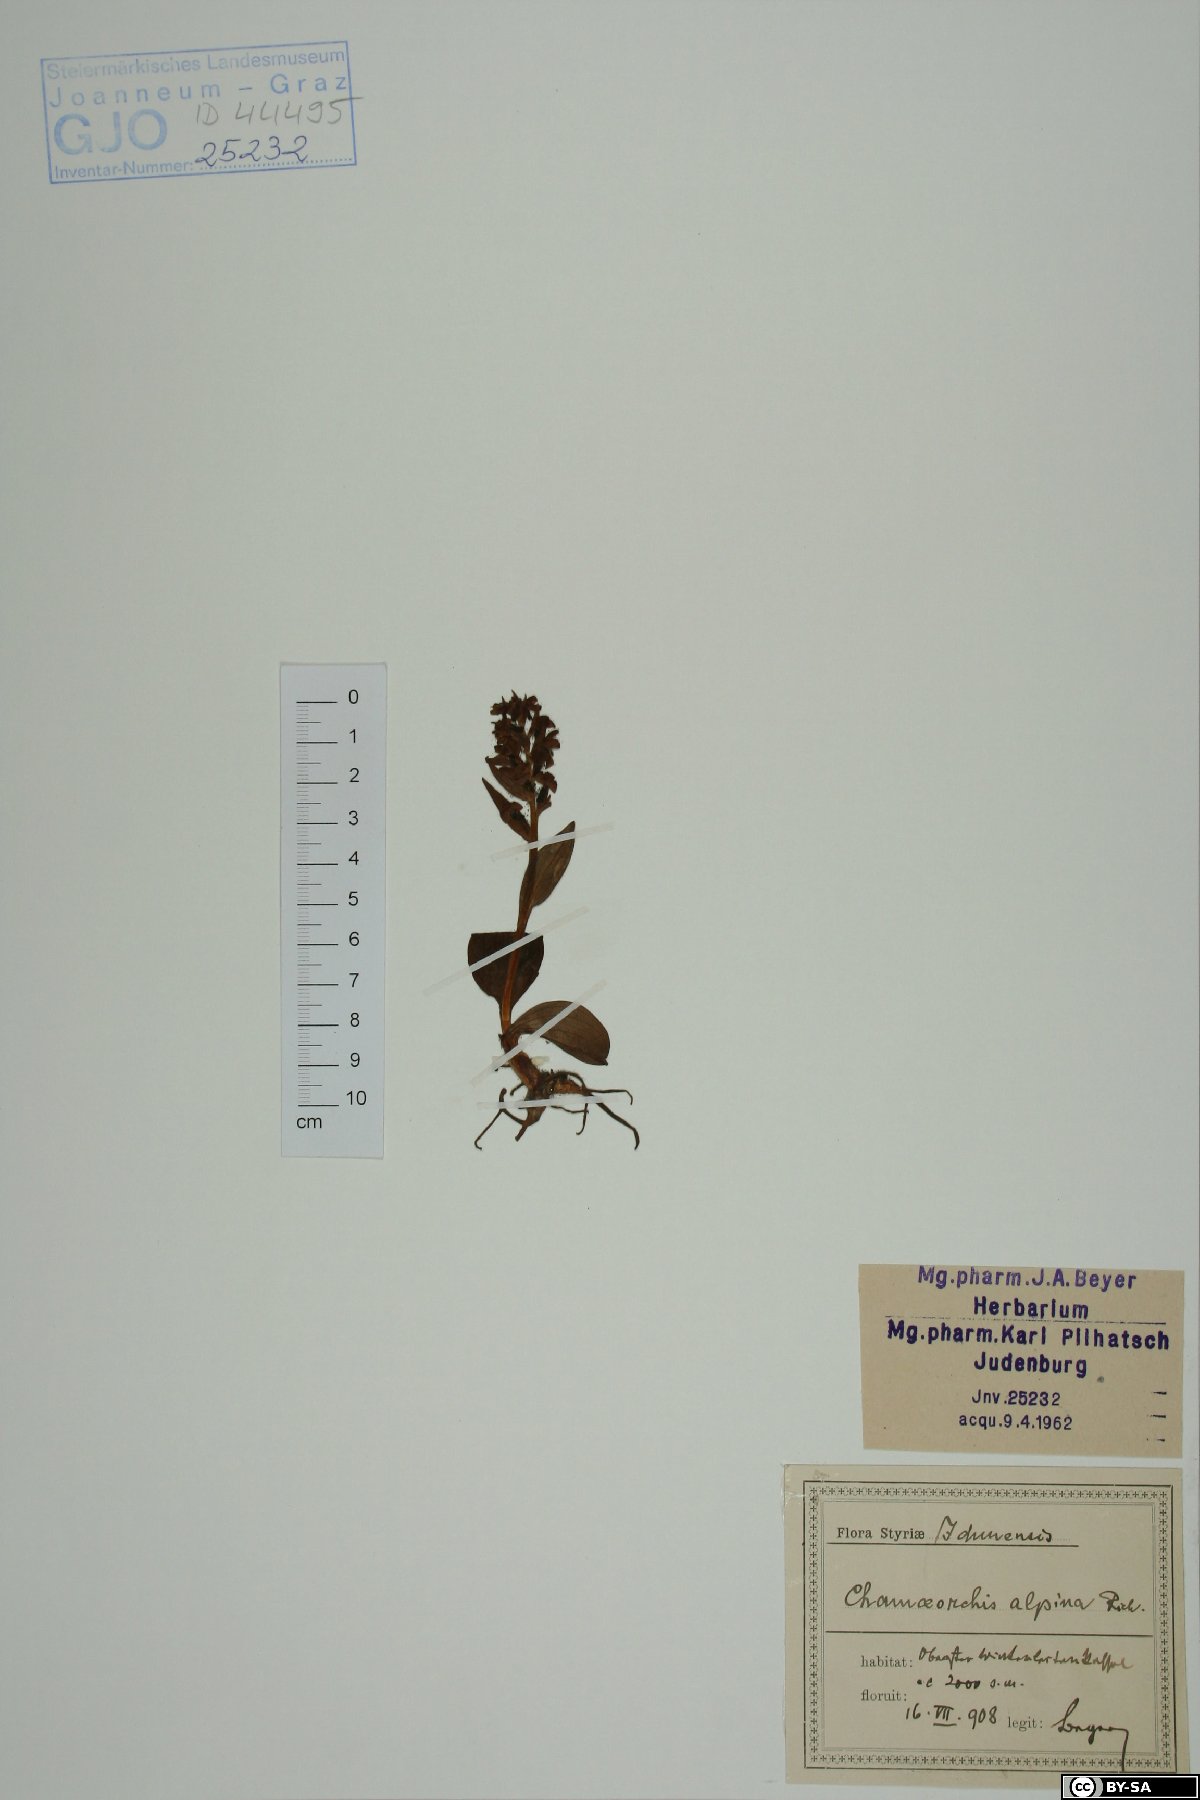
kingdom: Plantae
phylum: Tracheophyta
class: Liliopsida
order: Asparagales
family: Orchidaceae
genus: Chamorchis
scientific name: Chamorchis alpina
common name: Alpine chamorchis
